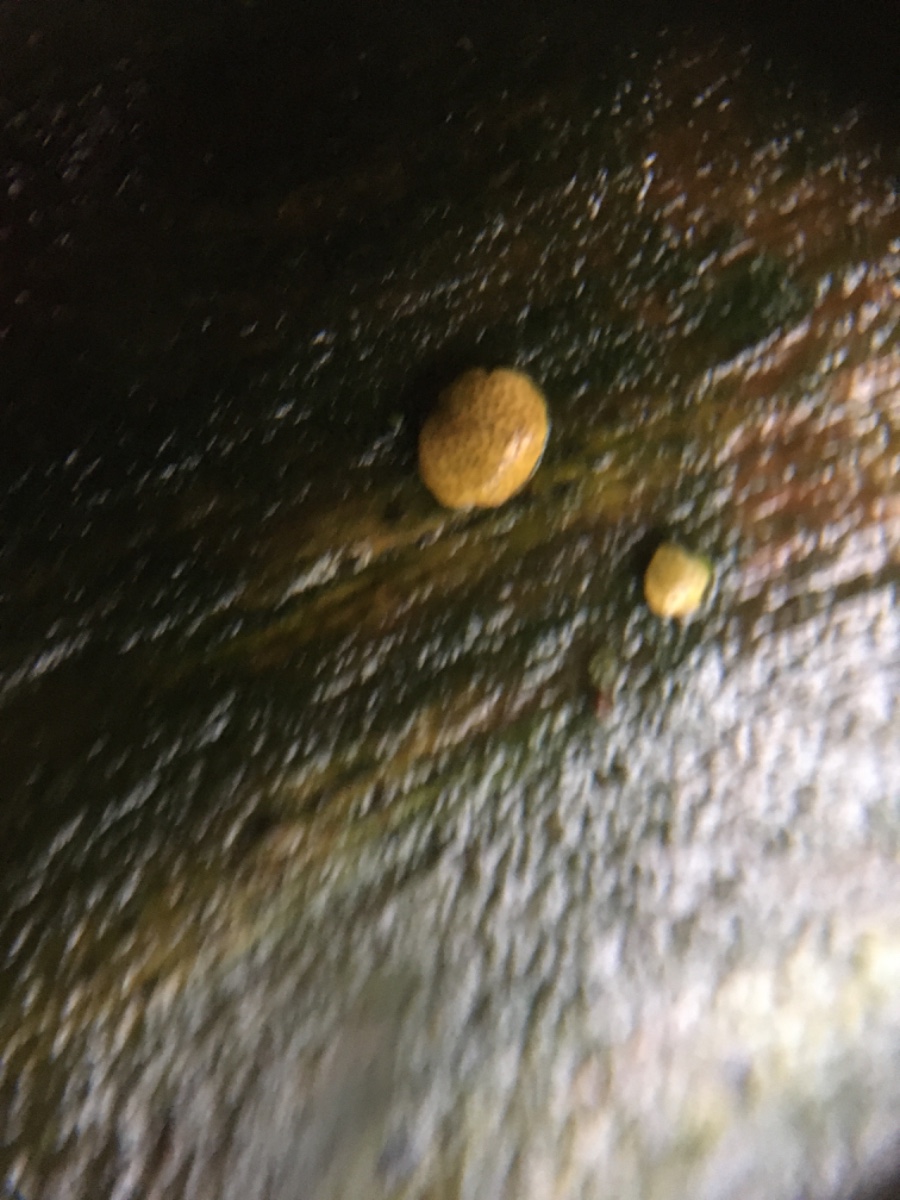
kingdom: Fungi
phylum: Ascomycota
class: Sordariomycetes
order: Hypocreales
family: Hypocreaceae
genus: Trichoderma
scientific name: Trichoderma aureoviride
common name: æggegul kødkerne
